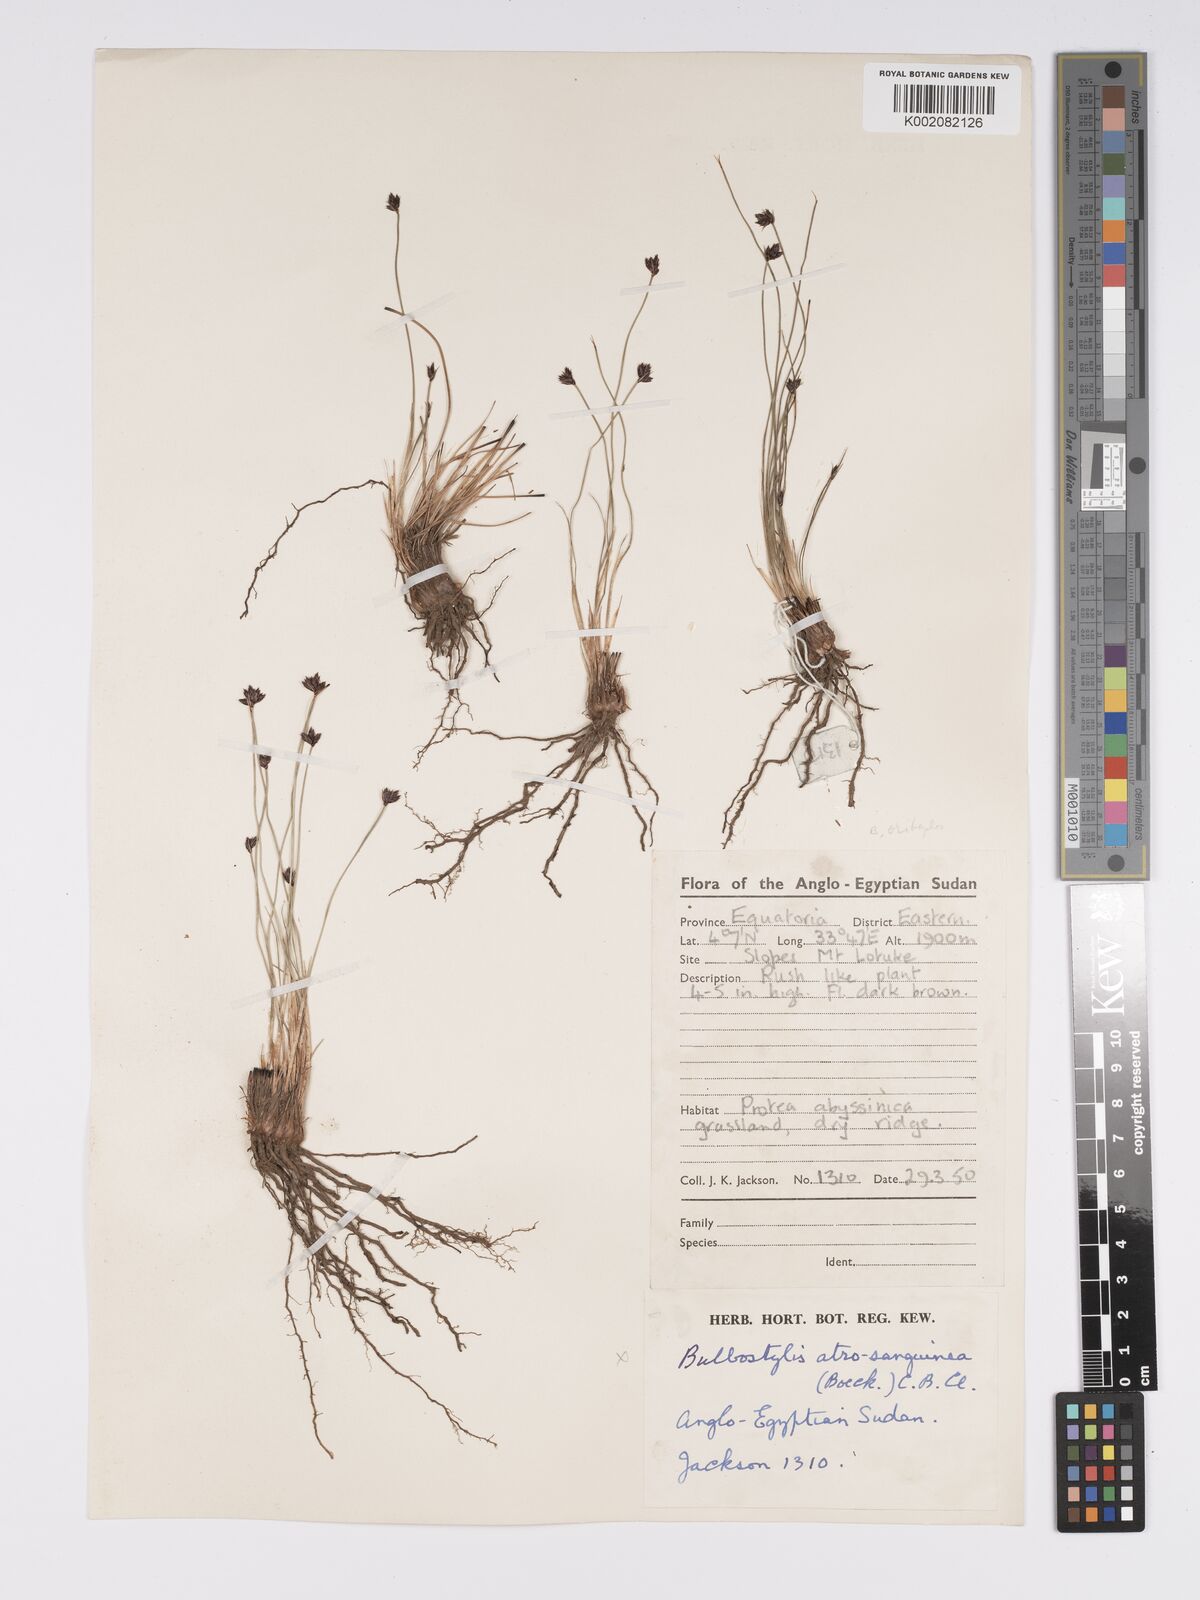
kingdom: Plantae
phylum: Tracheophyta
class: Liliopsida
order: Poales
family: Cyperaceae
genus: Bulbostylis
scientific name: Bulbostylis oritrephes
